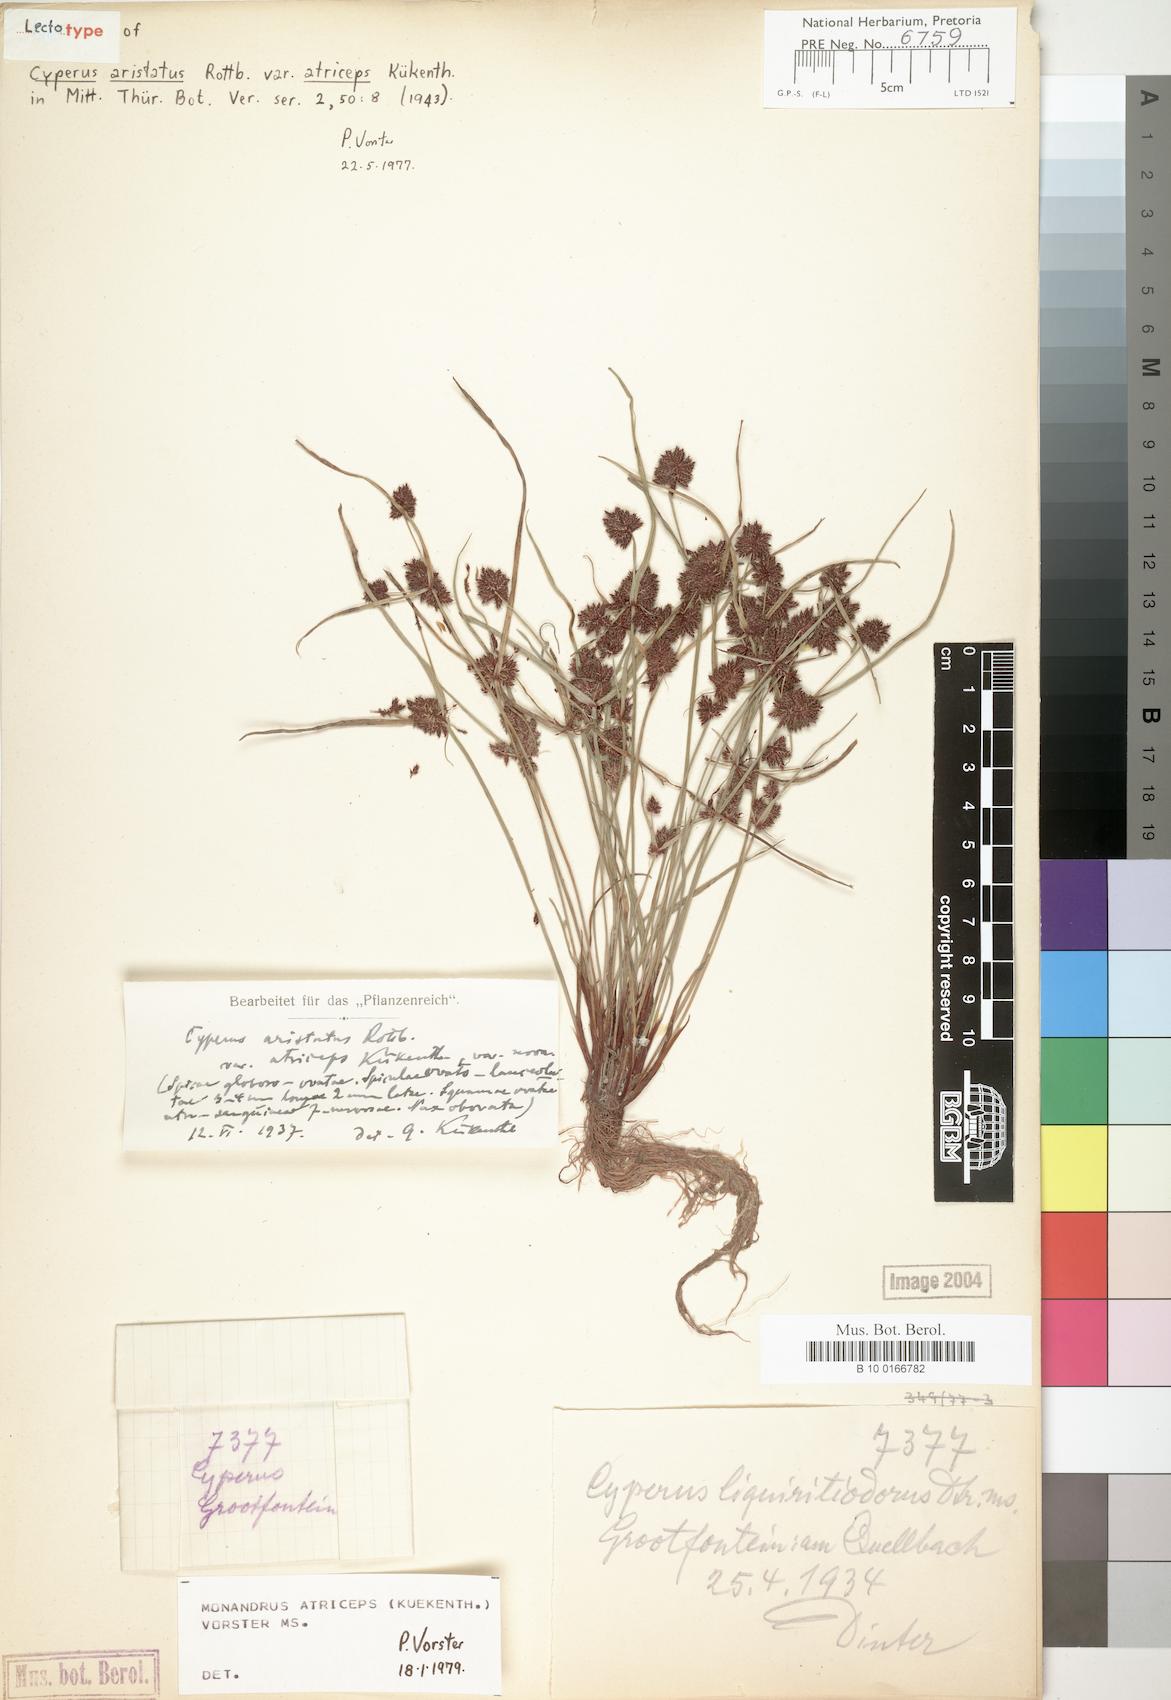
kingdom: Plantae
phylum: Tracheophyta
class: Liliopsida
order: Poales
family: Cyperaceae
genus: Cyperus
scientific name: Cyperus atriceps
